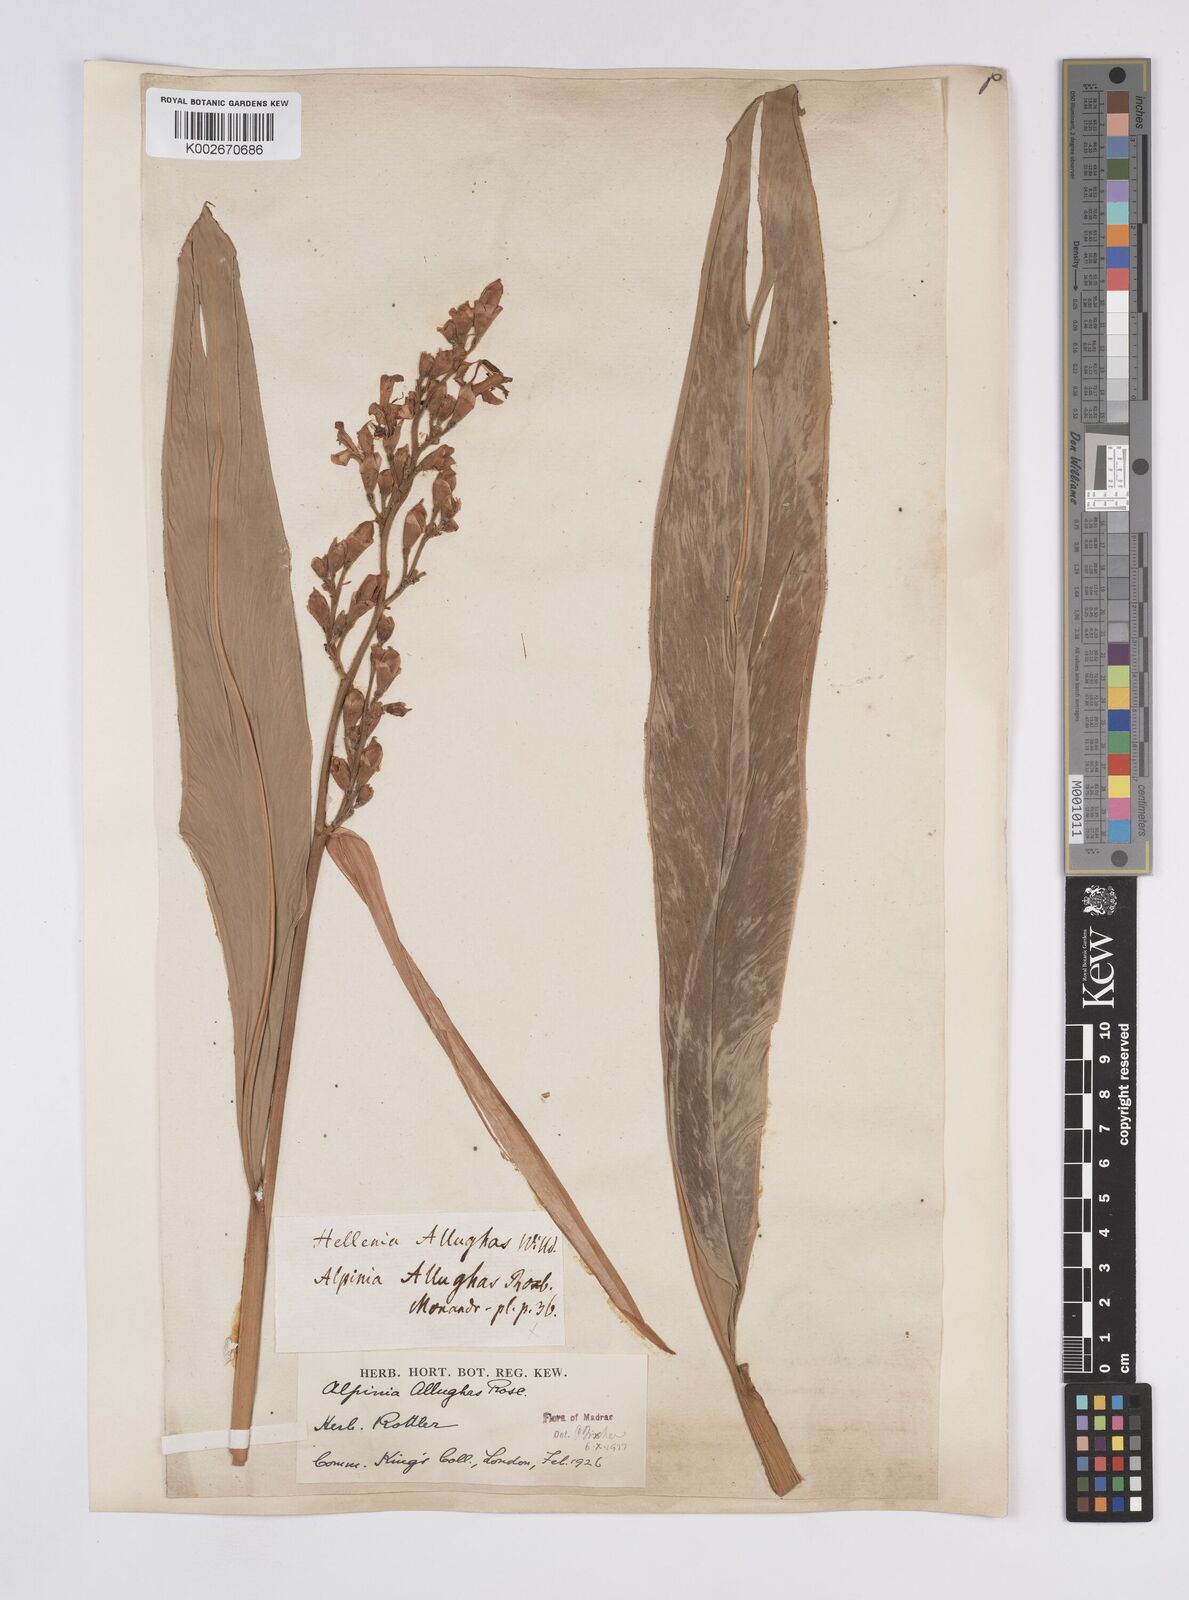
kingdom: Plantae
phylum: Tracheophyta
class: Liliopsida
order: Zingiberales
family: Zingiberaceae
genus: Alpinia
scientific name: Alpinia nigra
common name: Black fruited galanga
